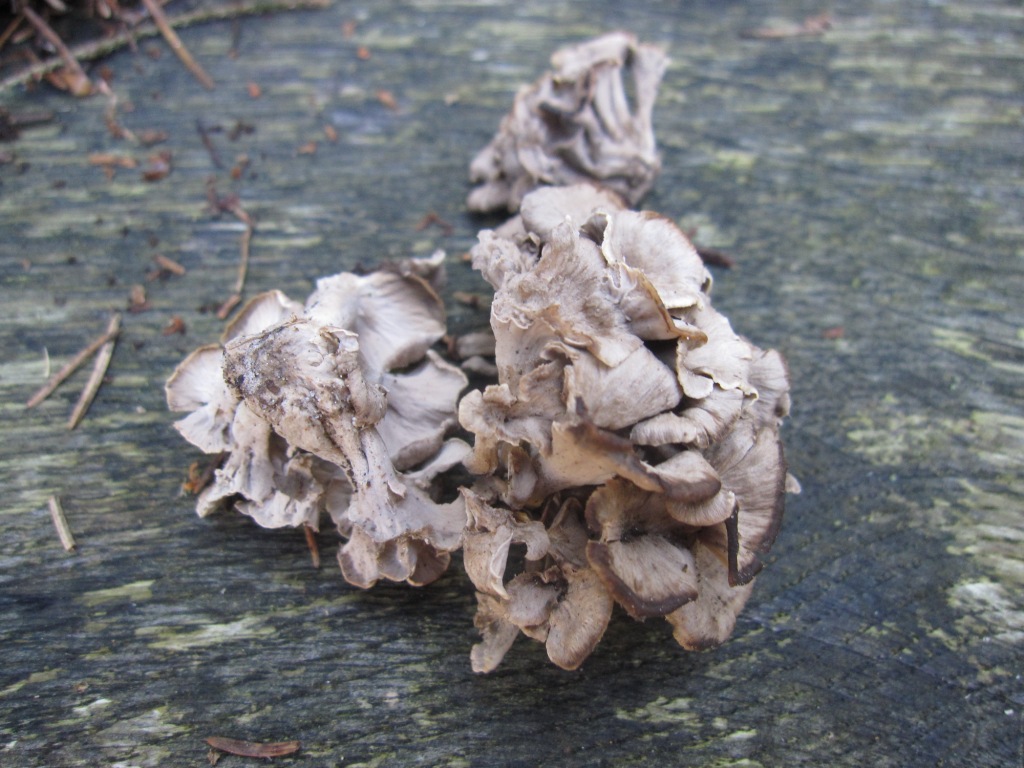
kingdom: Fungi
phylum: Basidiomycota
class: Agaricomycetes
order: Cantharellales
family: Hydnaceae
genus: Craterellus
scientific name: Craterellus undulatus
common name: liden kantarel
